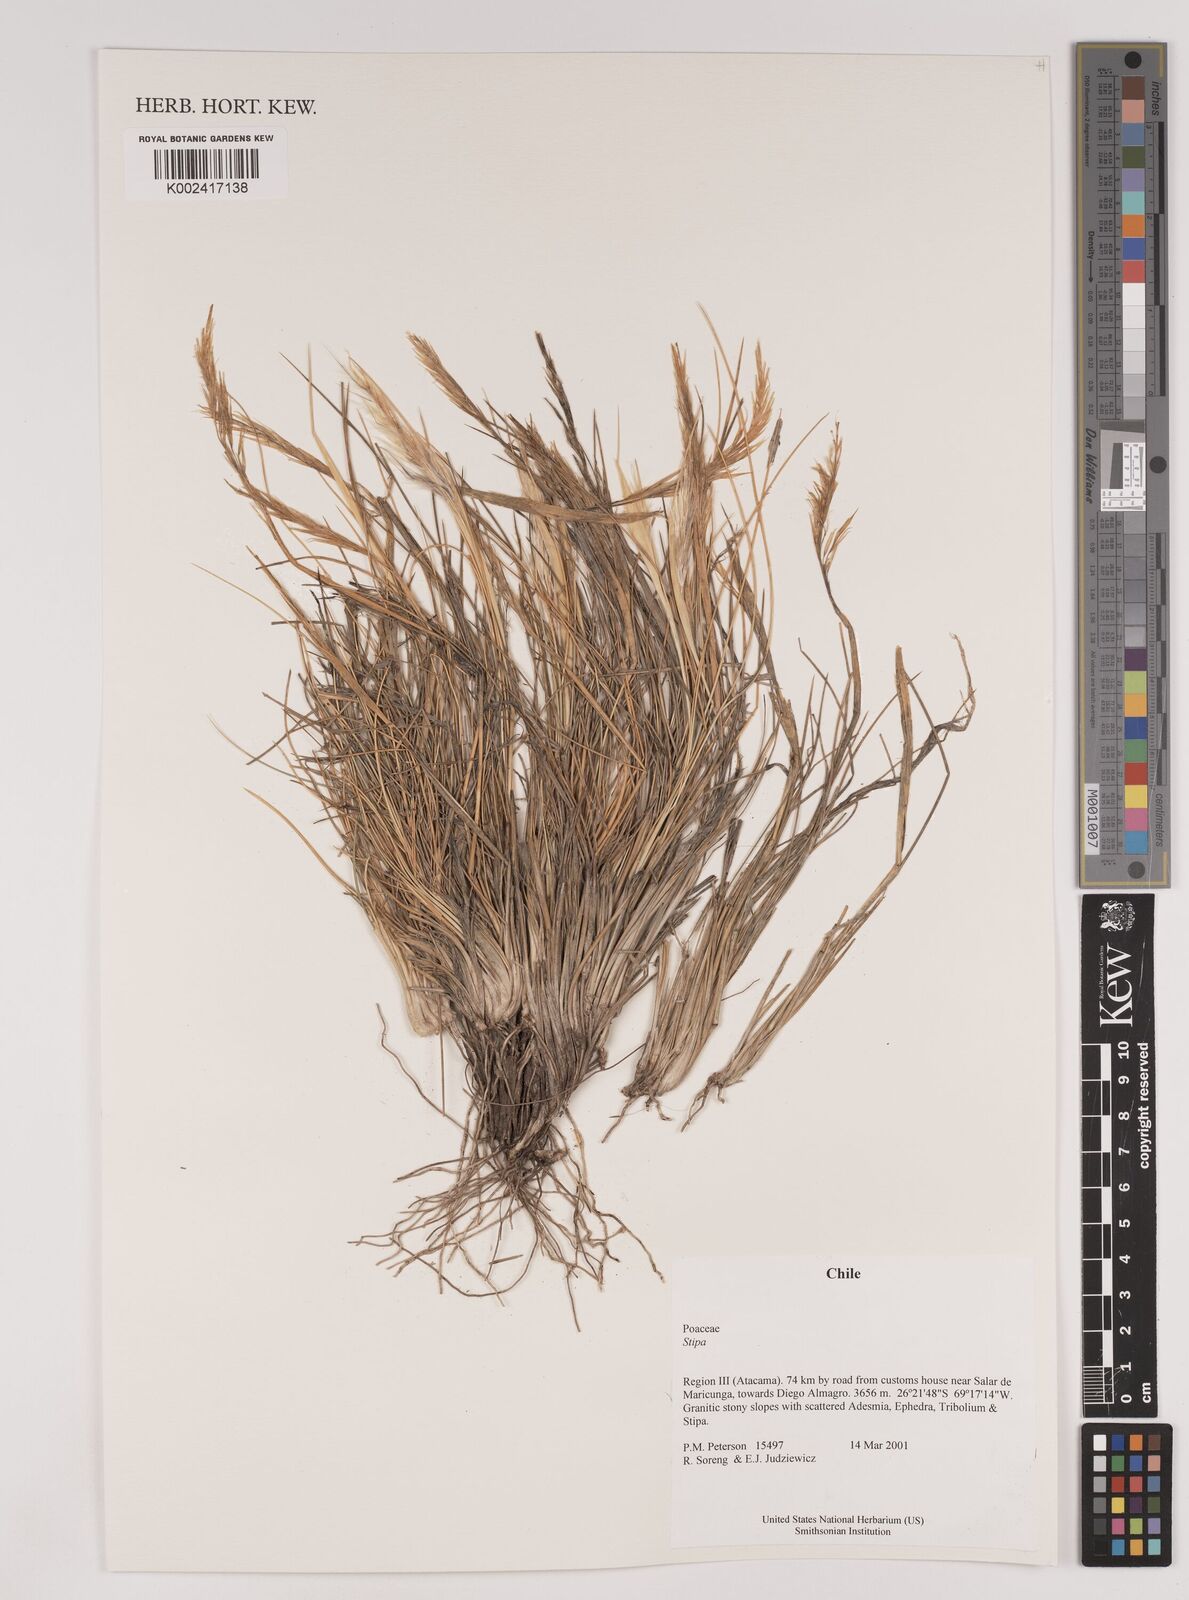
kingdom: Plantae
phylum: Tracheophyta
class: Liliopsida
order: Poales
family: Poaceae
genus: Stipa
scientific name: Stipa
